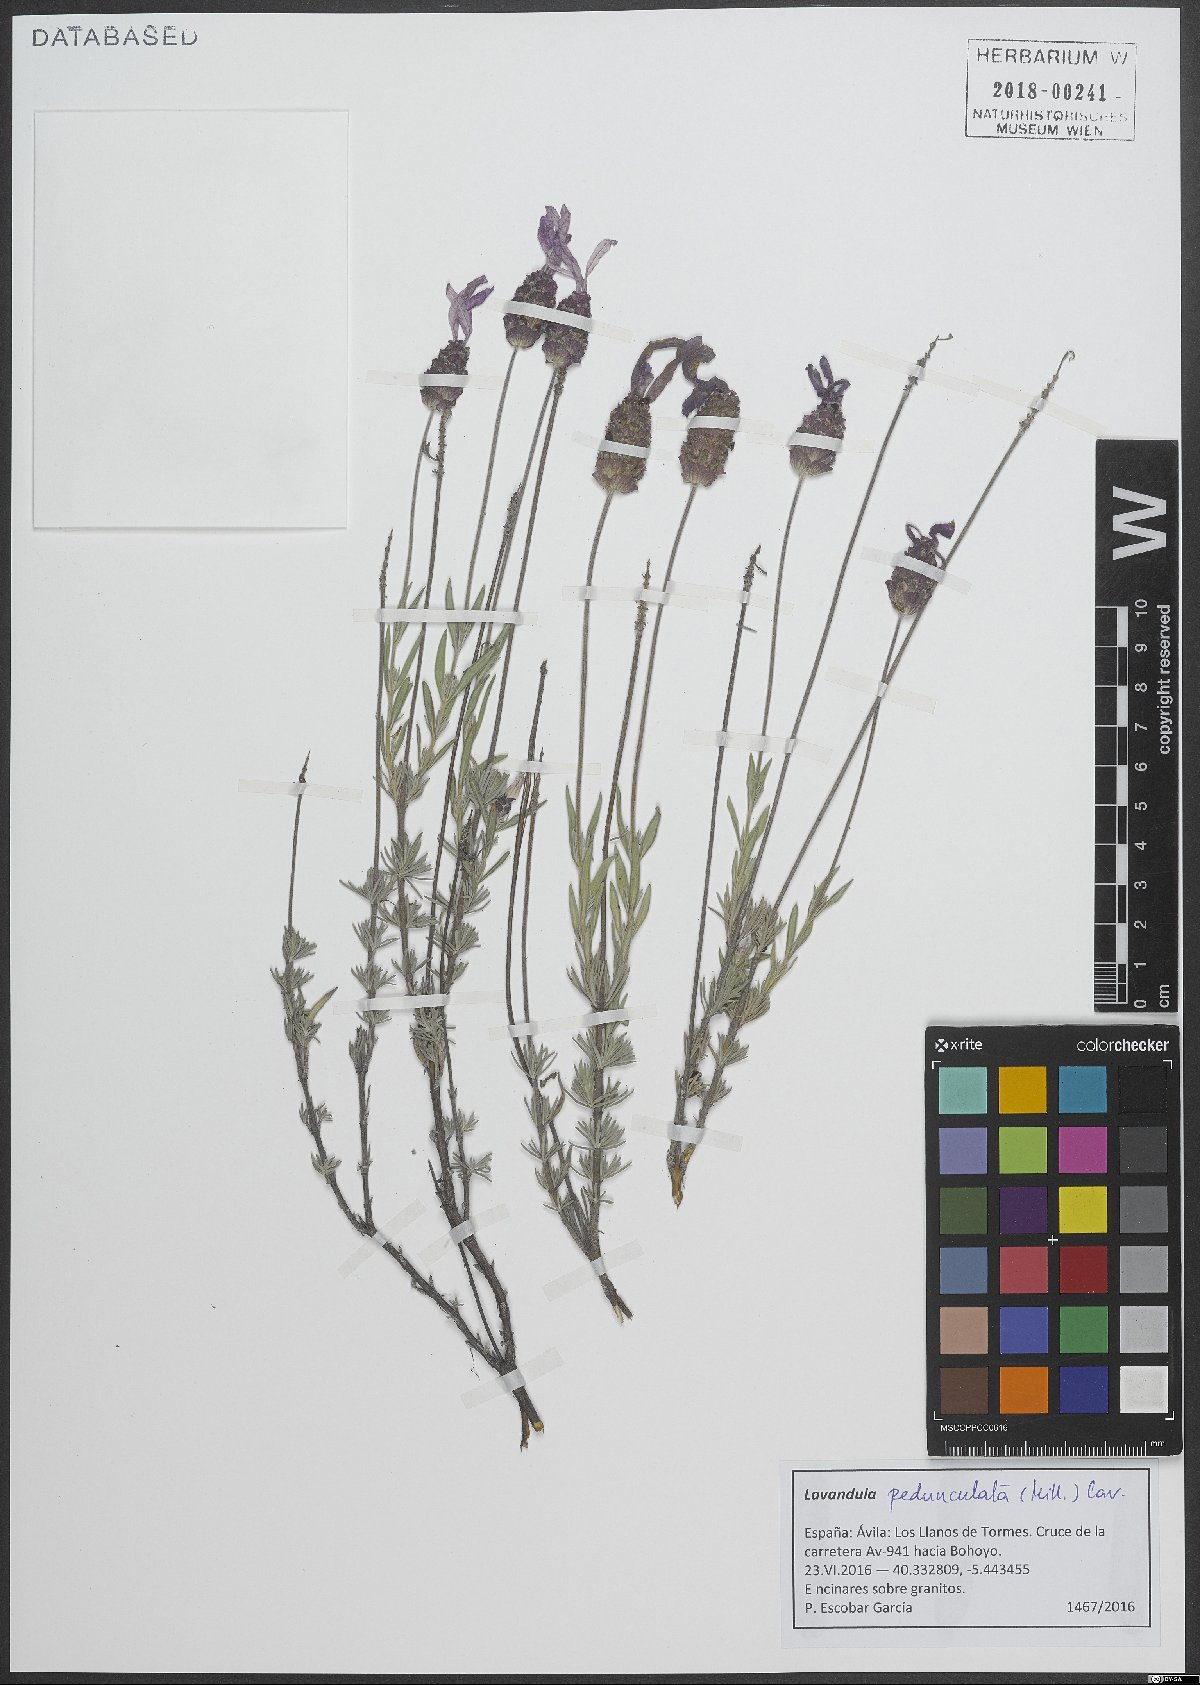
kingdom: Plantae
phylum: Tracheophyta
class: Magnoliopsida
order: Lamiales
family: Lamiaceae
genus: Lavandula
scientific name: Lavandula pedunculata
